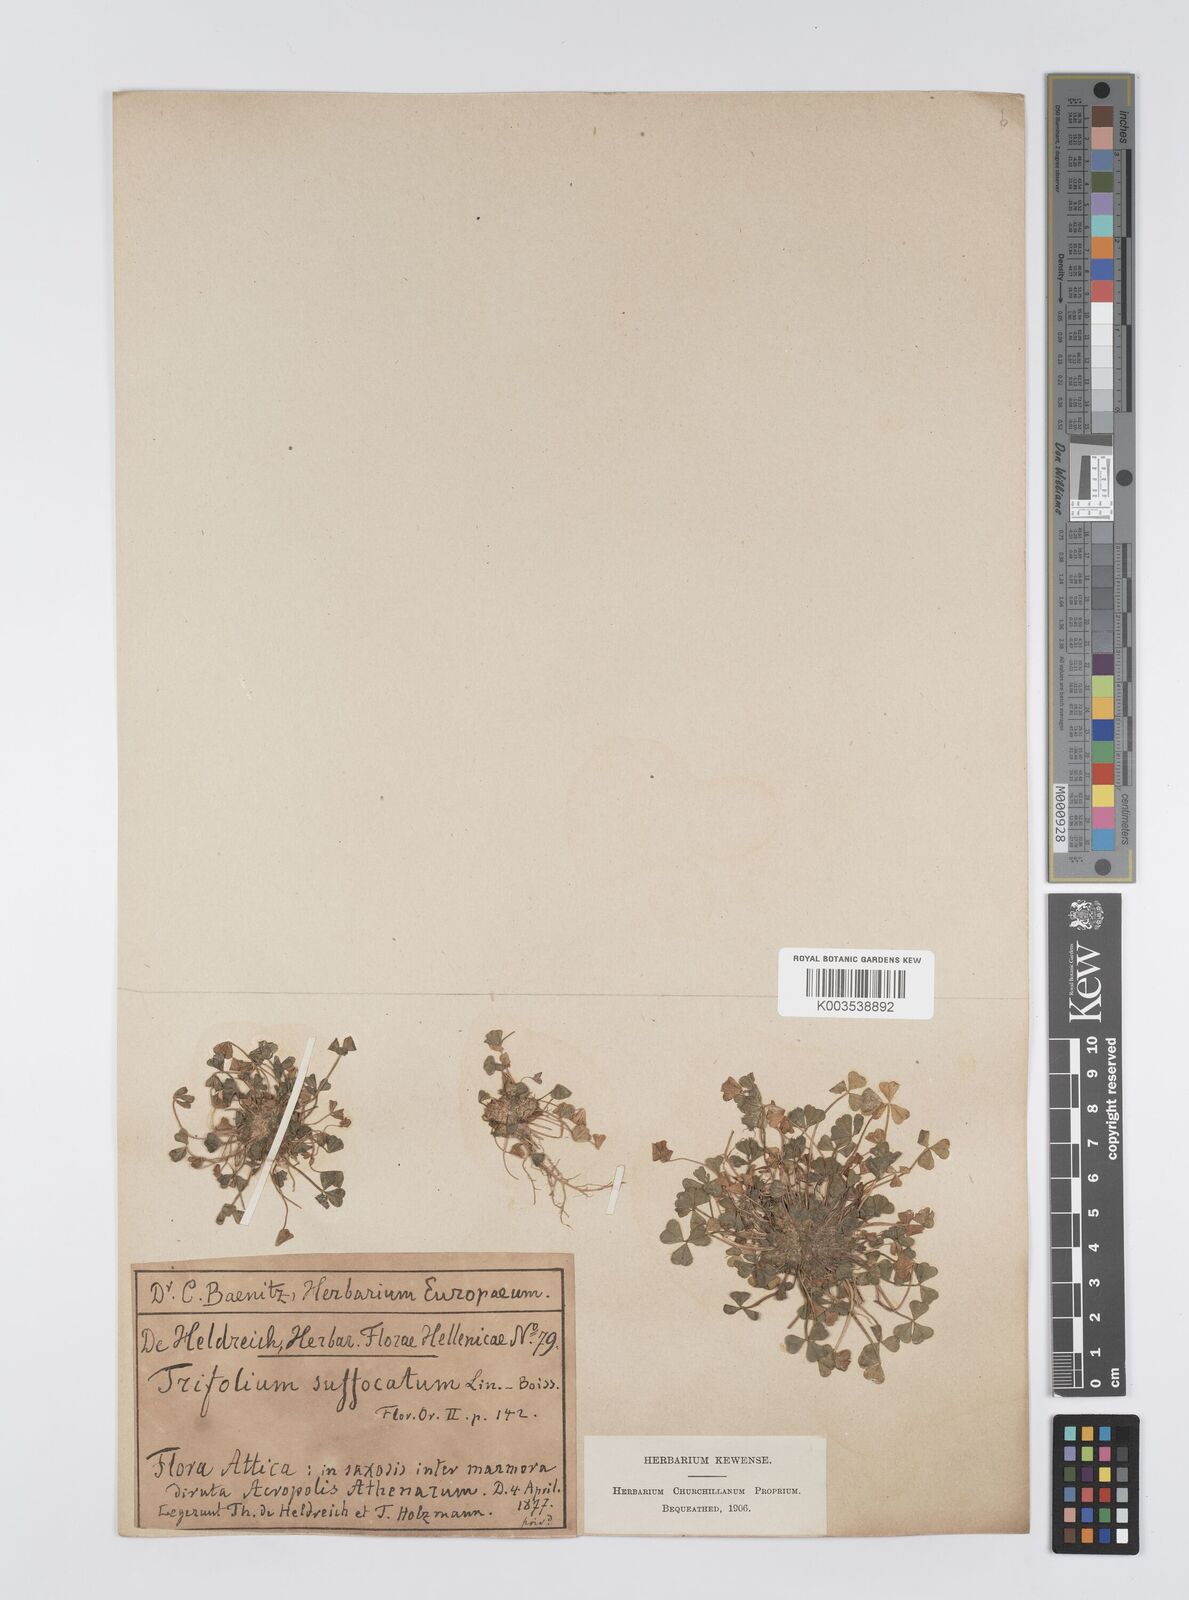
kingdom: Plantae
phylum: Tracheophyta
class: Magnoliopsida
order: Fabales
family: Fabaceae
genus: Trifolium
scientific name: Trifolium suffocatum
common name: Suffocated clover
